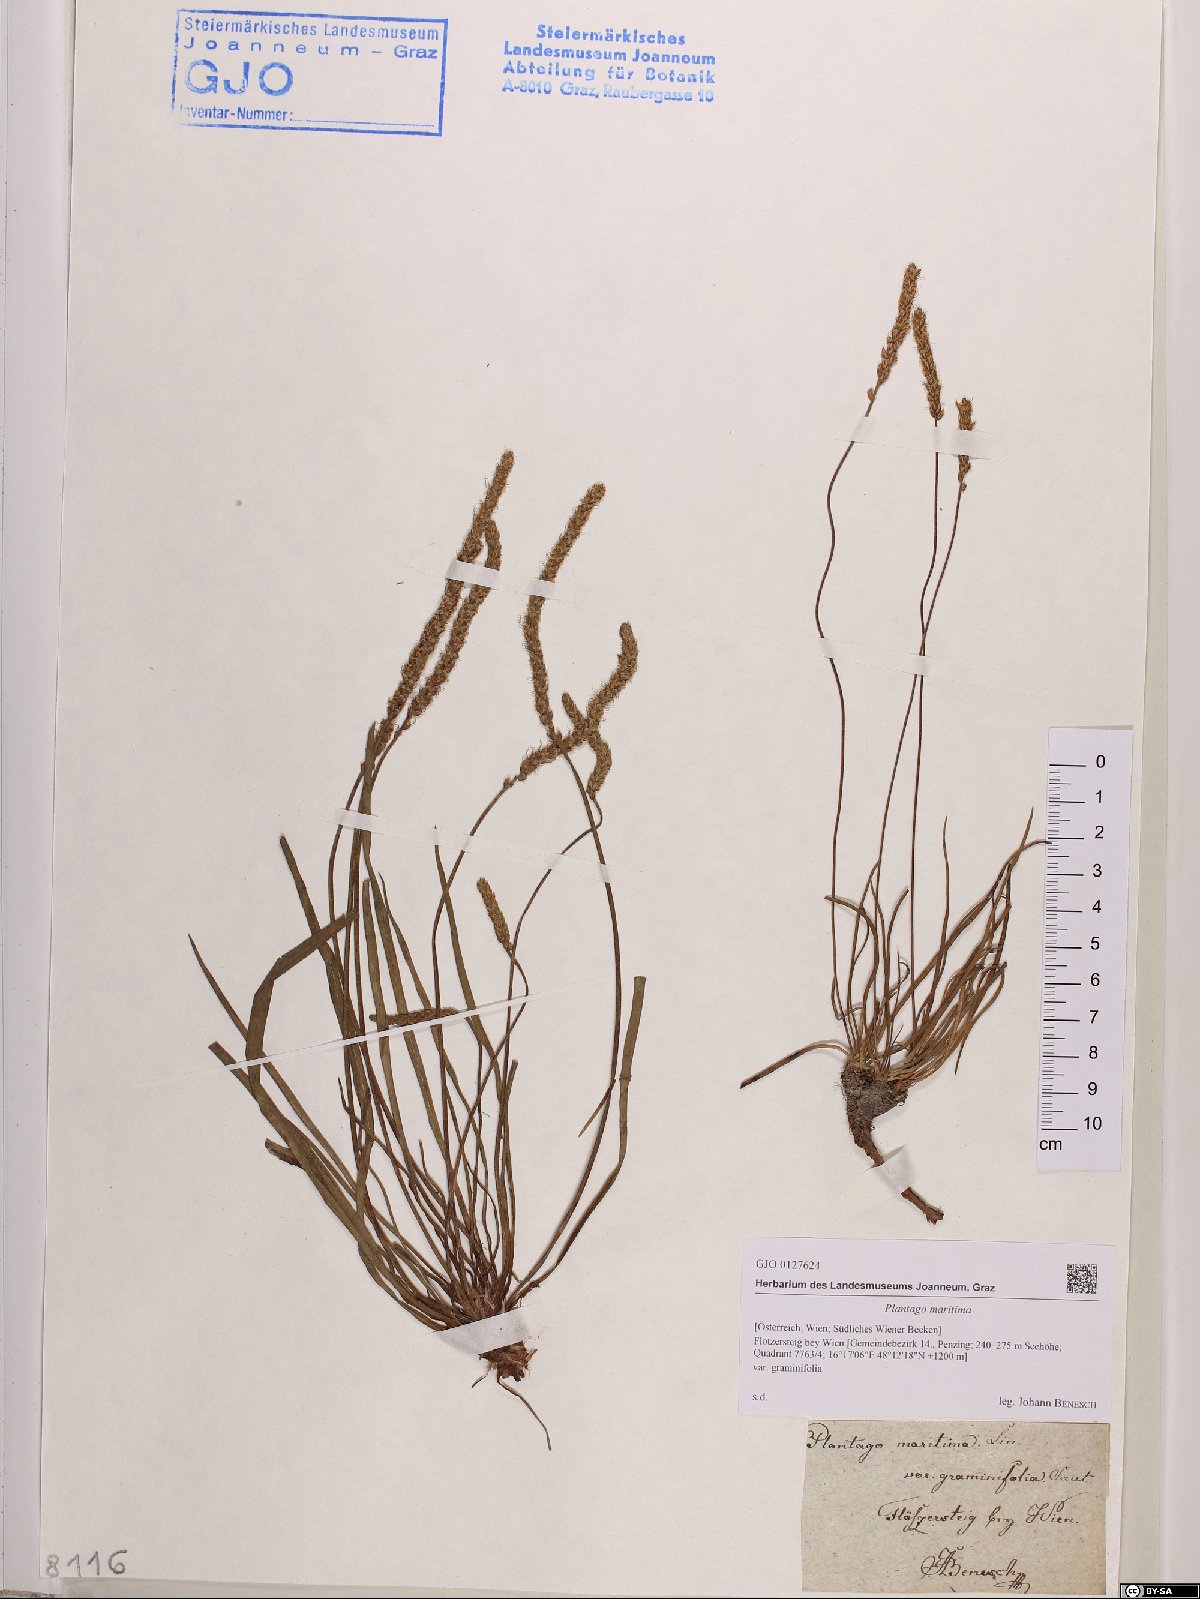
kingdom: Plantae
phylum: Tracheophyta
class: Magnoliopsida
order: Lamiales
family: Plantaginaceae
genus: Plantago
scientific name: Plantago maritima
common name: Sea plantain
